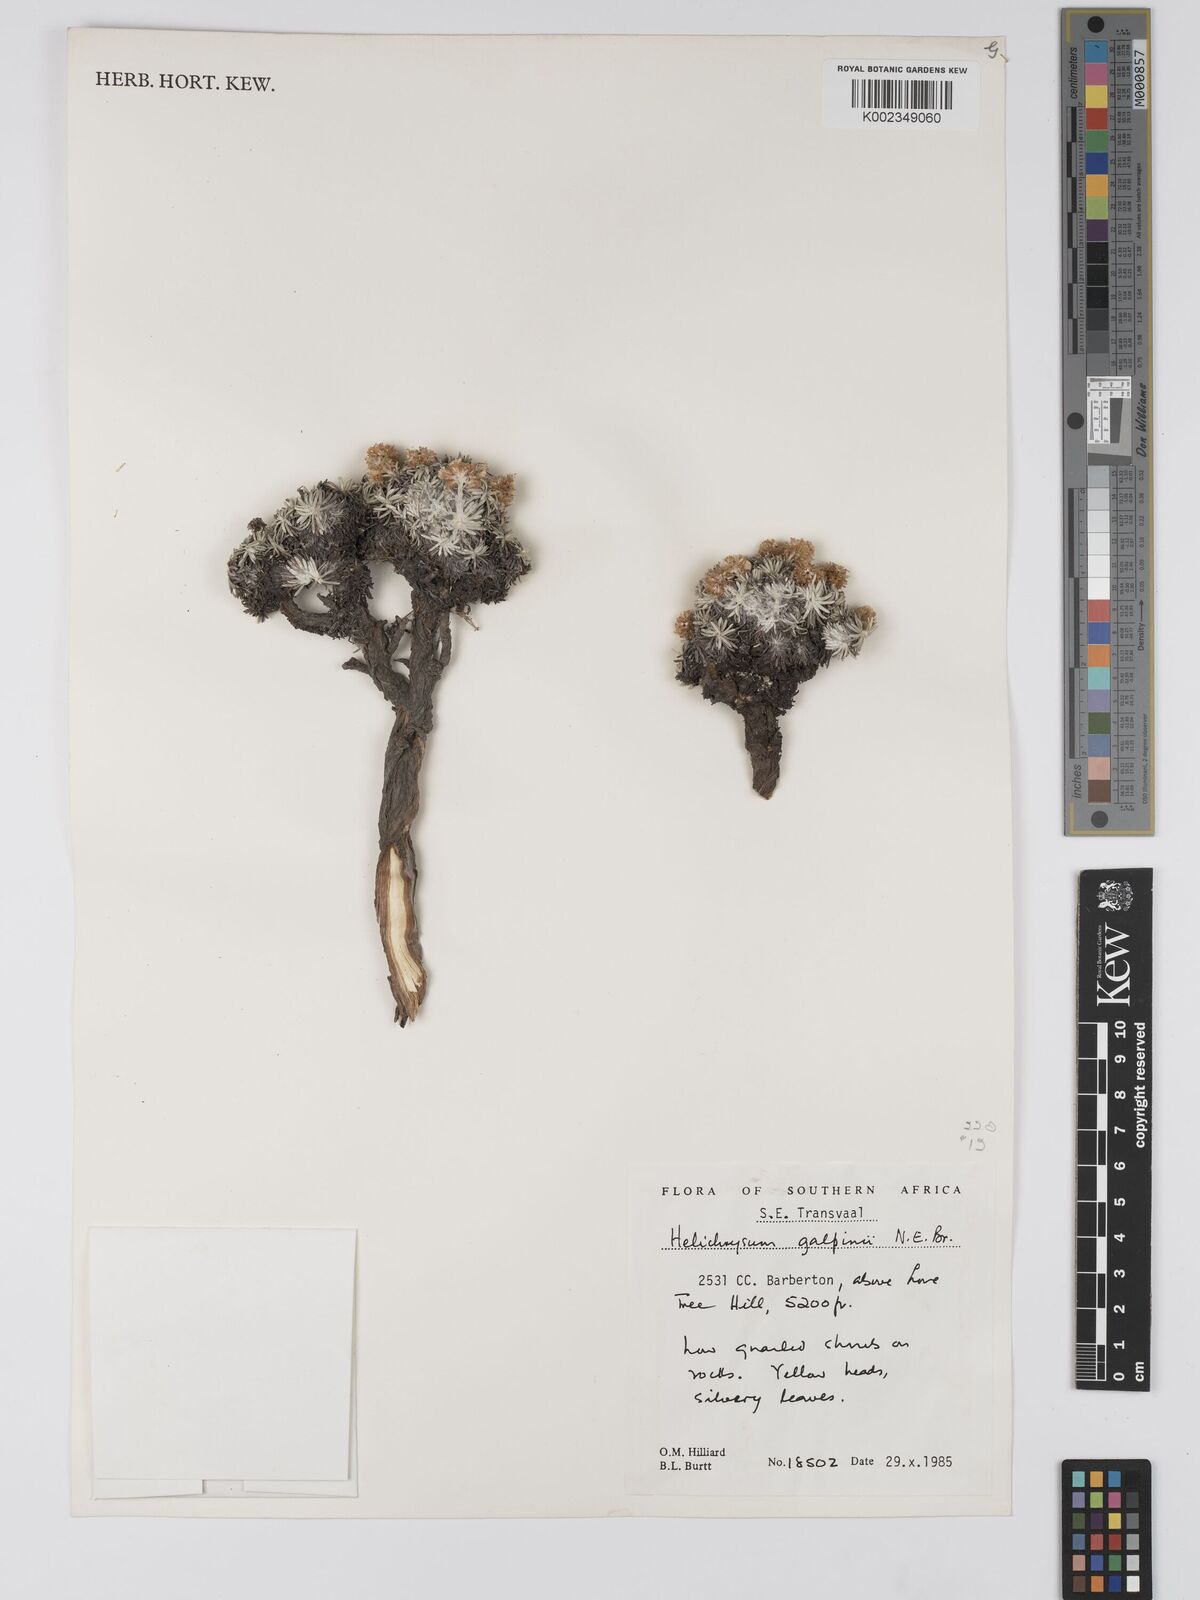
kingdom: Plantae
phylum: Tracheophyta
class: Magnoliopsida
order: Asterales
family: Asteraceae
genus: Helichrysum
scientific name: Helichrysum galpinii
